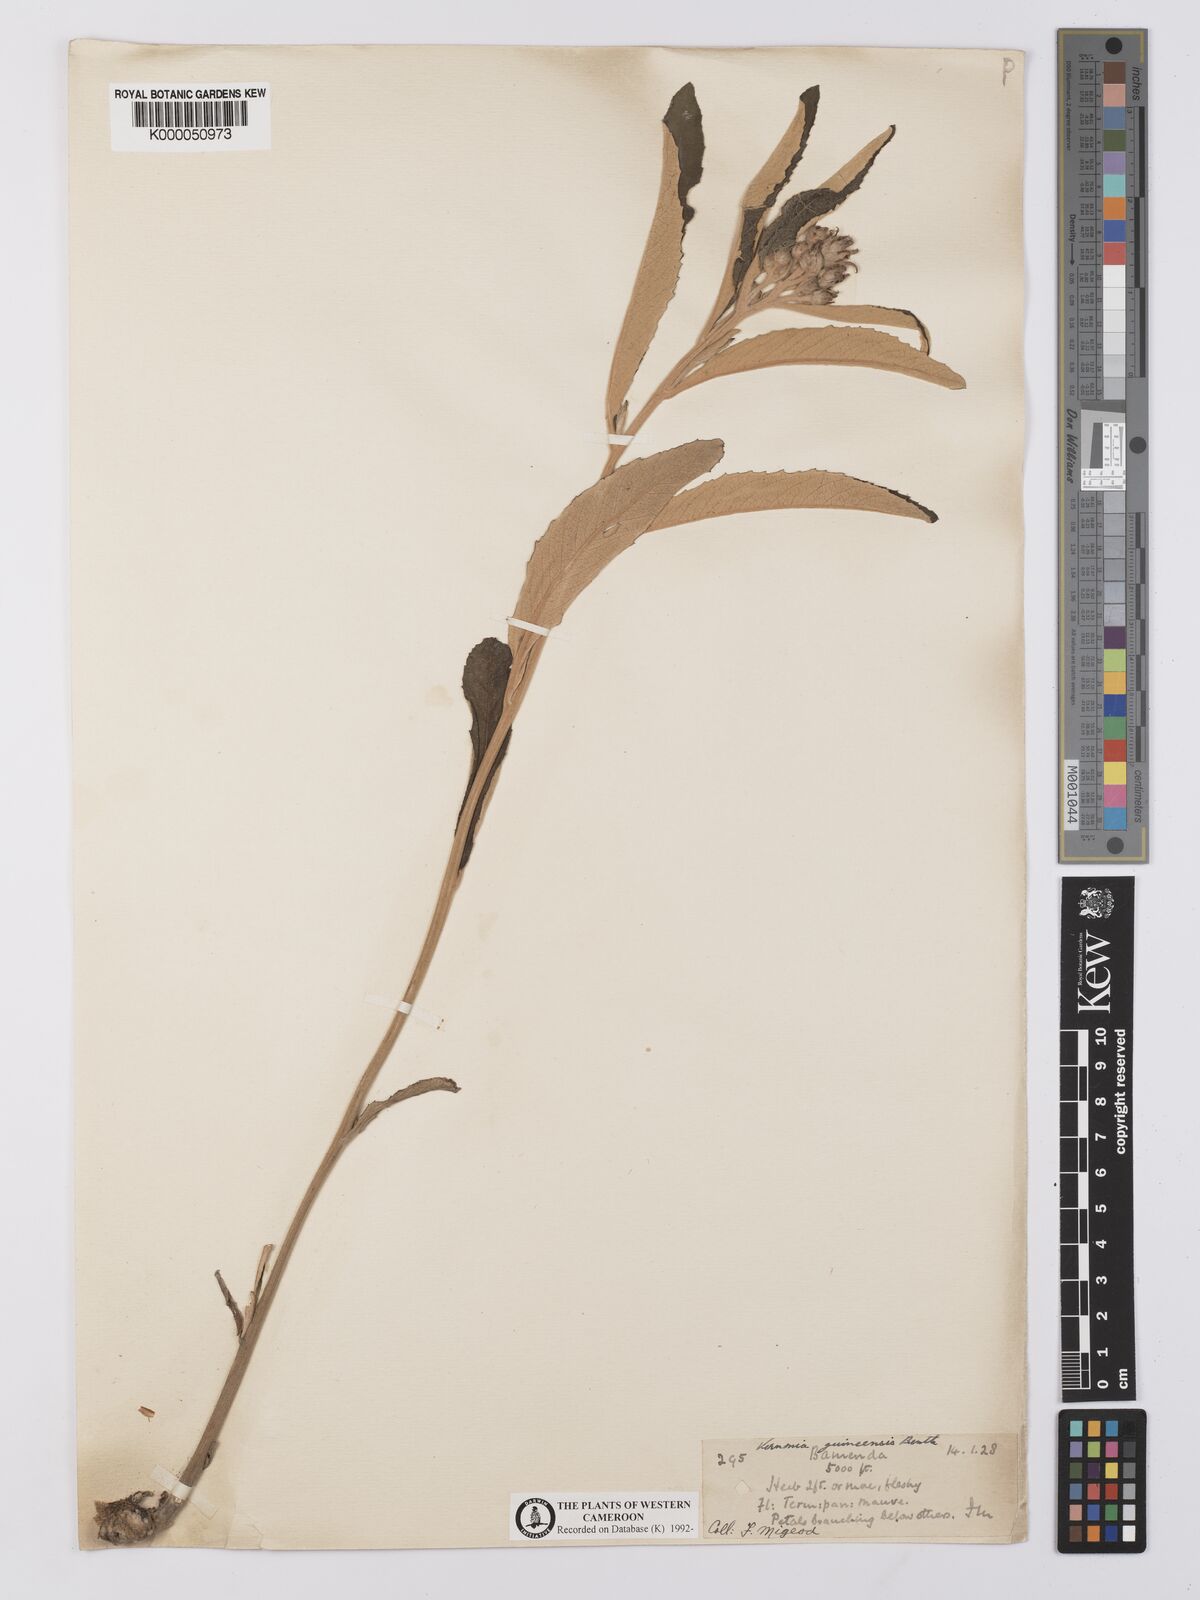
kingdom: Plantae
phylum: Tracheophyta
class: Magnoliopsida
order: Asterales
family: Asteraceae
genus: Baccharoides
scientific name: Baccharoides guineensis
